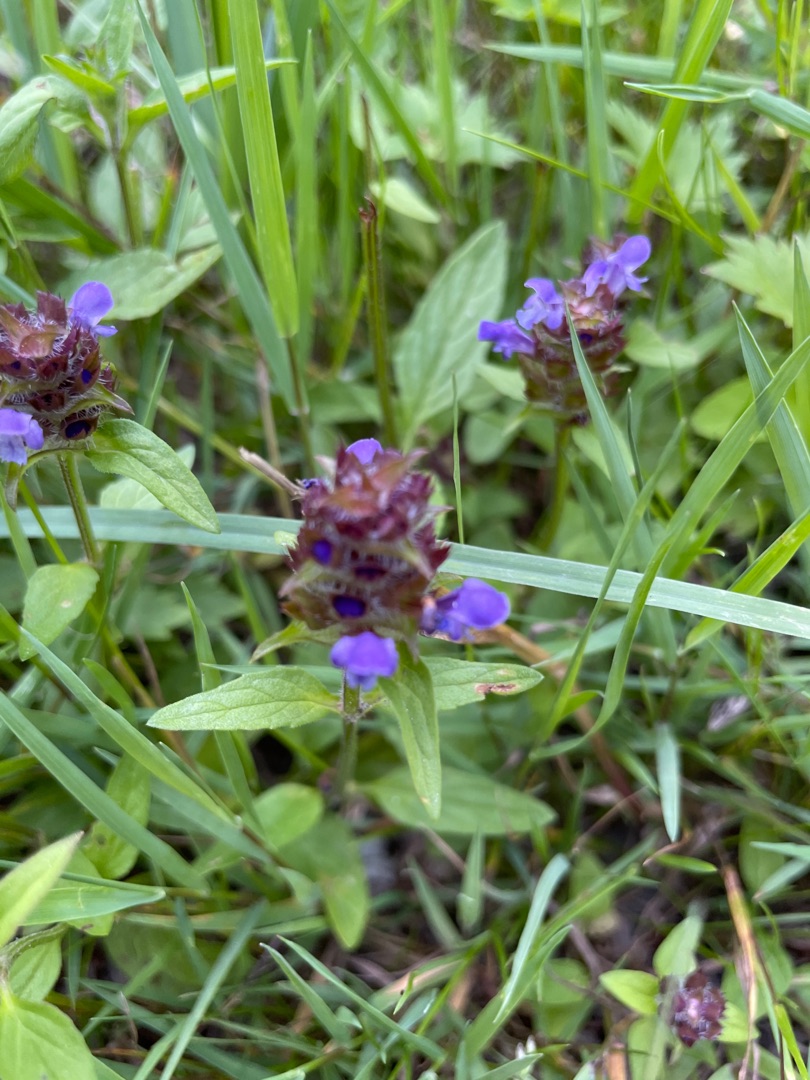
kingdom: Plantae
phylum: Tracheophyta
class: Magnoliopsida
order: Lamiales
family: Lamiaceae
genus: Prunella
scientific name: Prunella vulgaris
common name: Almindelig brunelle
